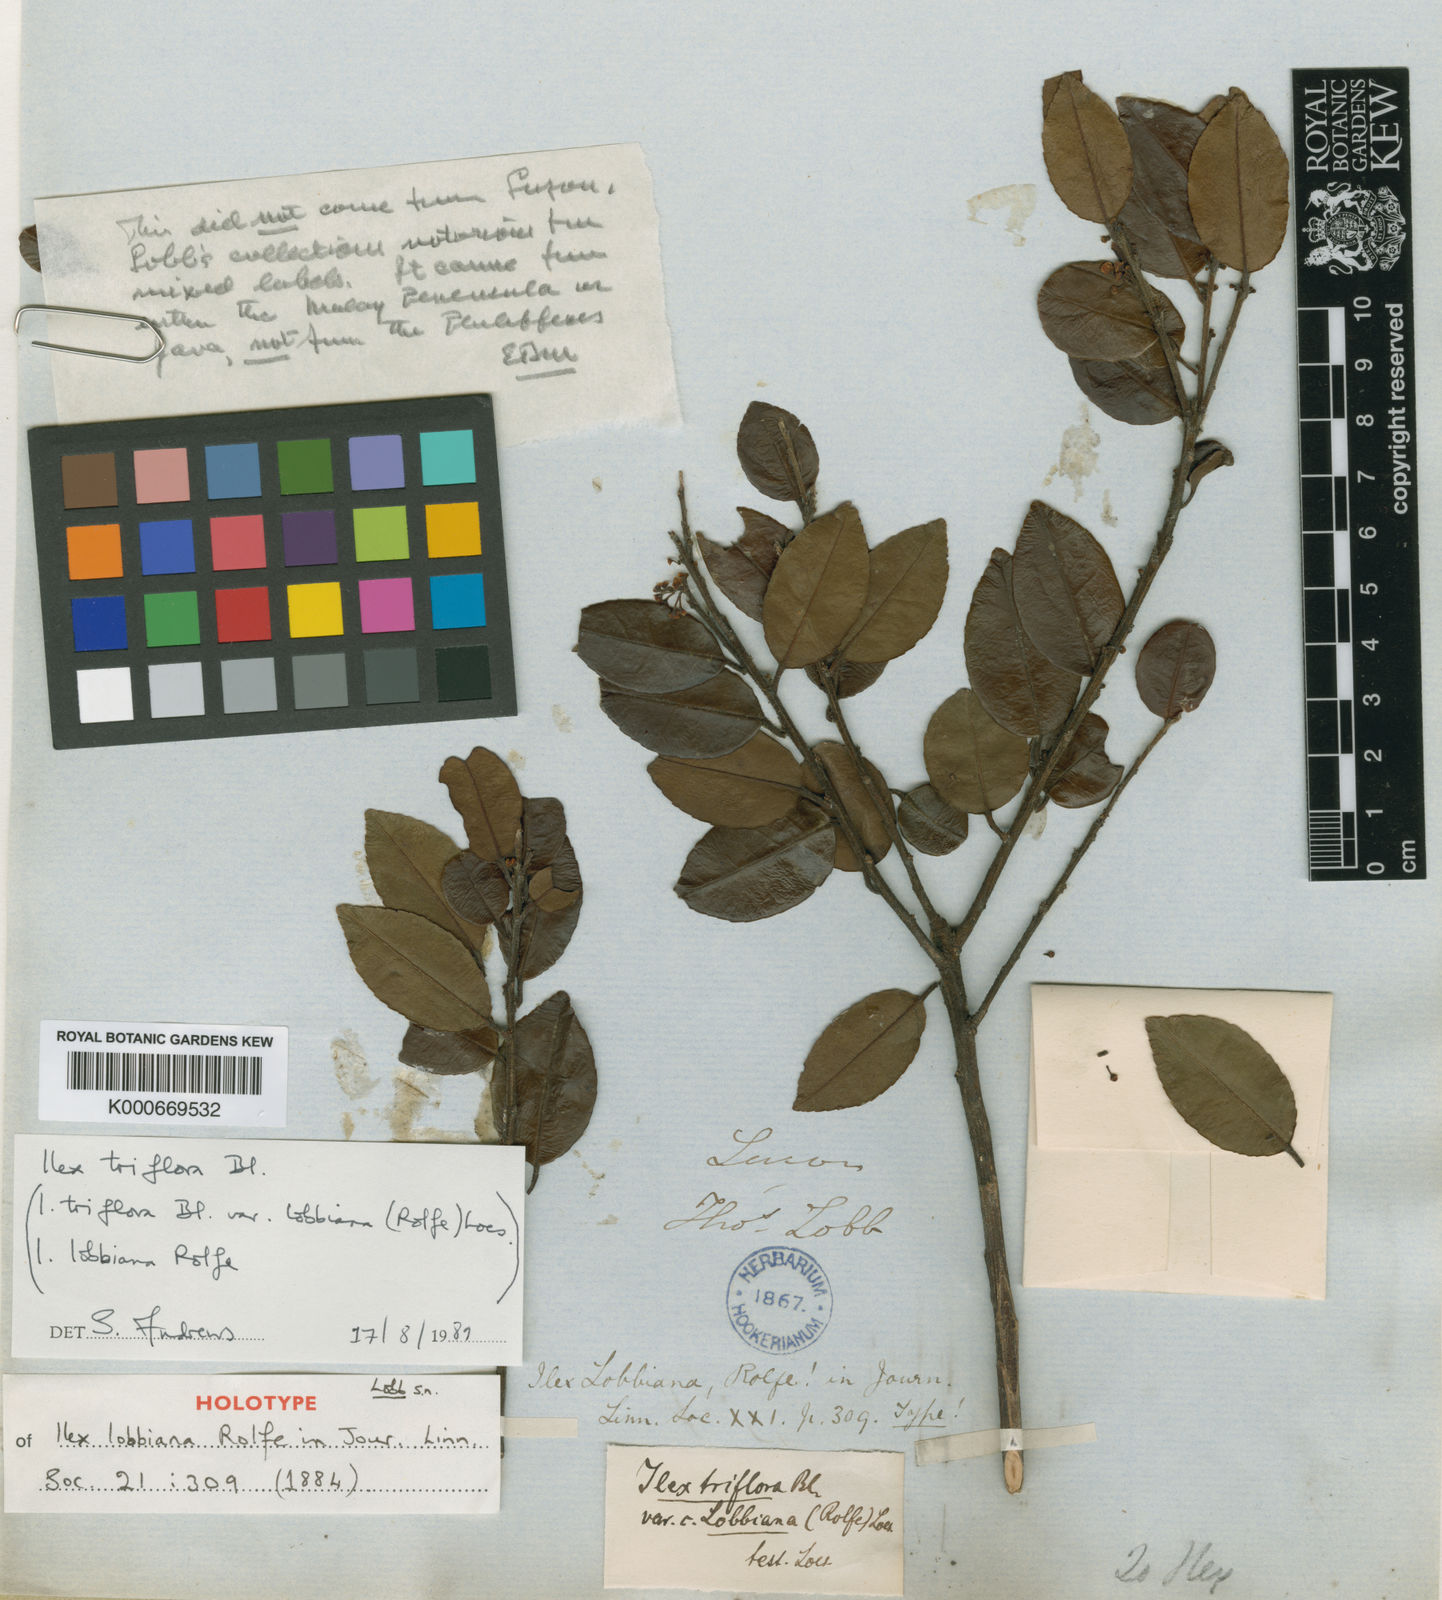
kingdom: Plantae
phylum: Tracheophyta
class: Magnoliopsida
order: Aquifoliales
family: Aquifoliaceae
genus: Ilex
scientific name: Ilex triflora
